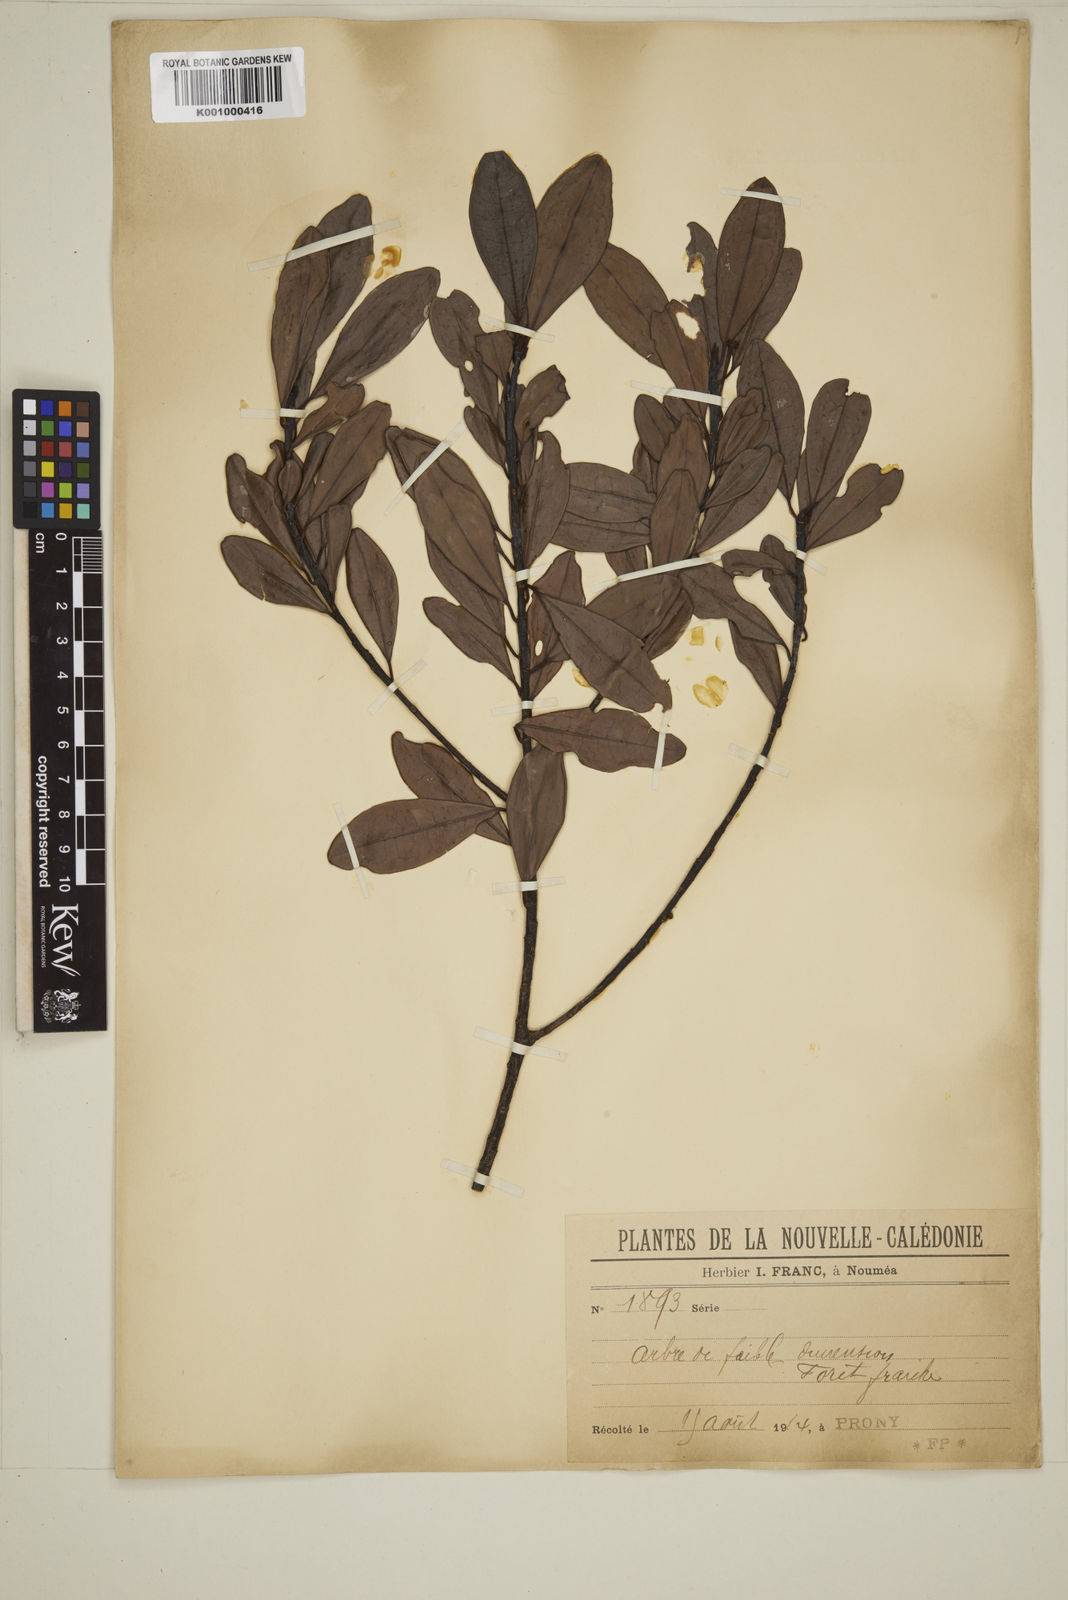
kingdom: Plantae
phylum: Tracheophyta
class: Magnoliopsida
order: Myrtales
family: Myrtaceae
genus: Eugenia
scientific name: Eugenia
